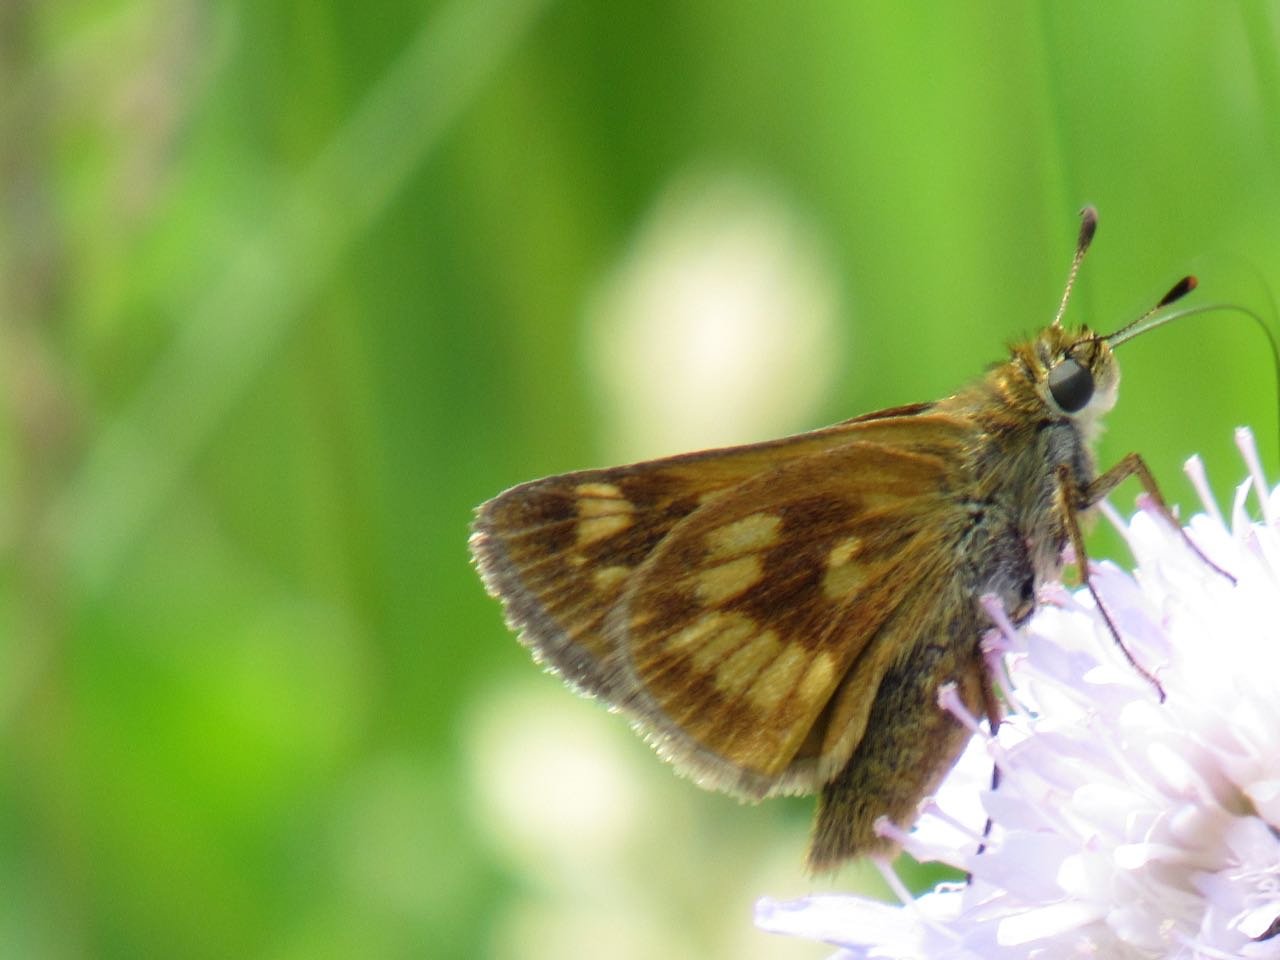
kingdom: Animalia
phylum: Arthropoda
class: Insecta
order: Lepidoptera
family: Hesperiidae
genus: Polites
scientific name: Polites
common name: Long Dash Skipper
